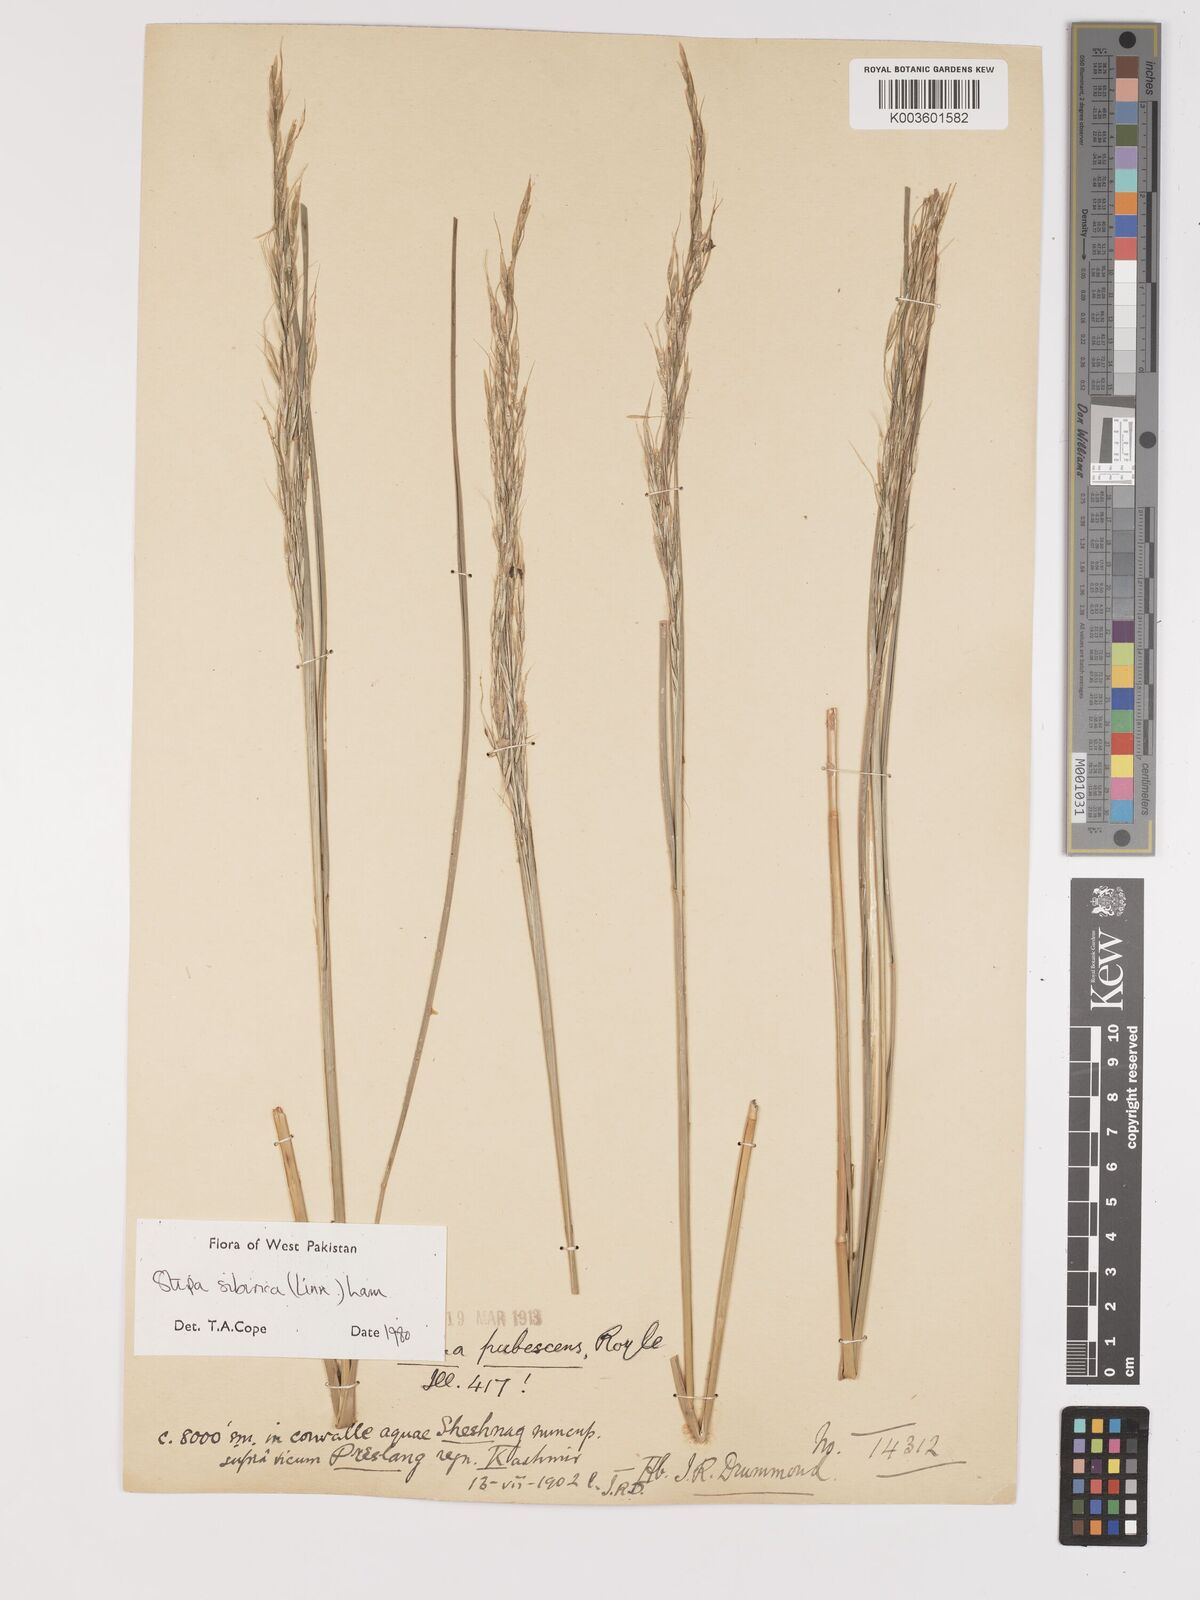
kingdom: Plantae
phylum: Tracheophyta
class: Liliopsida
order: Poales
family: Poaceae
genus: Achnatherum
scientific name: Achnatherum brandisii
